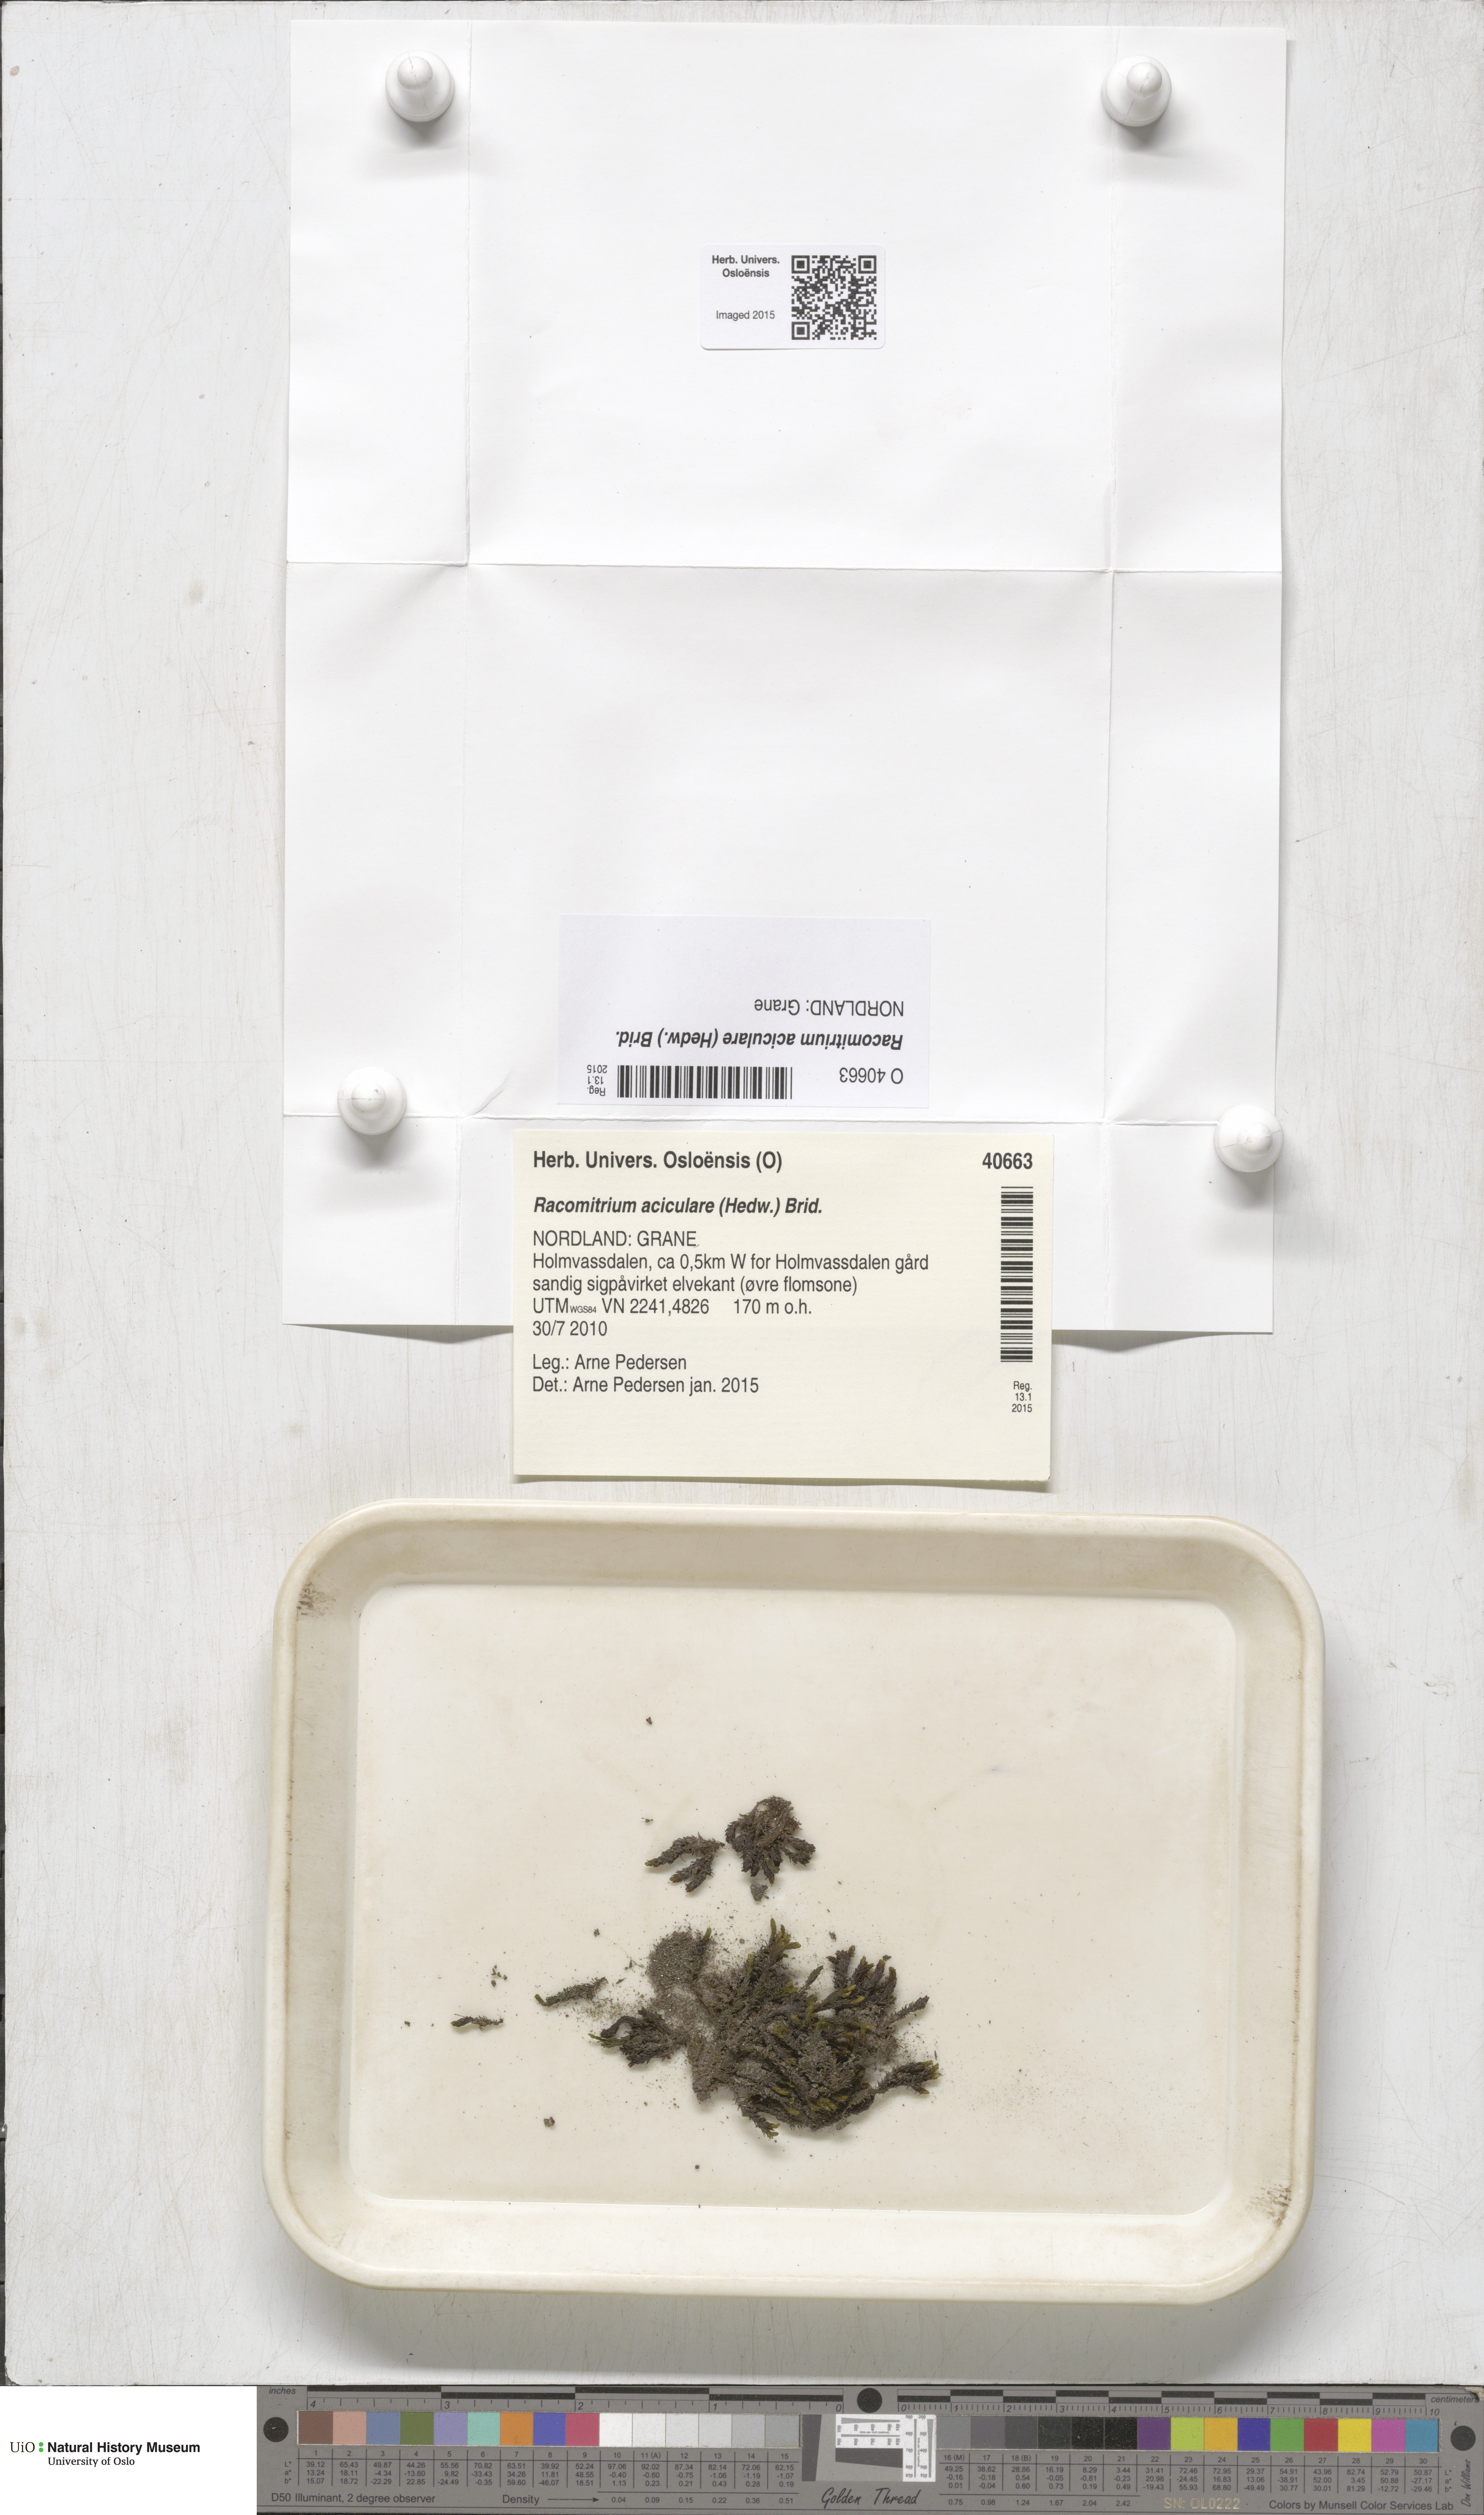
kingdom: Plantae
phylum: Bryophyta
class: Bryopsida
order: Grimmiales
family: Grimmiaceae
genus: Codriophorus
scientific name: Codriophorus acicularis
